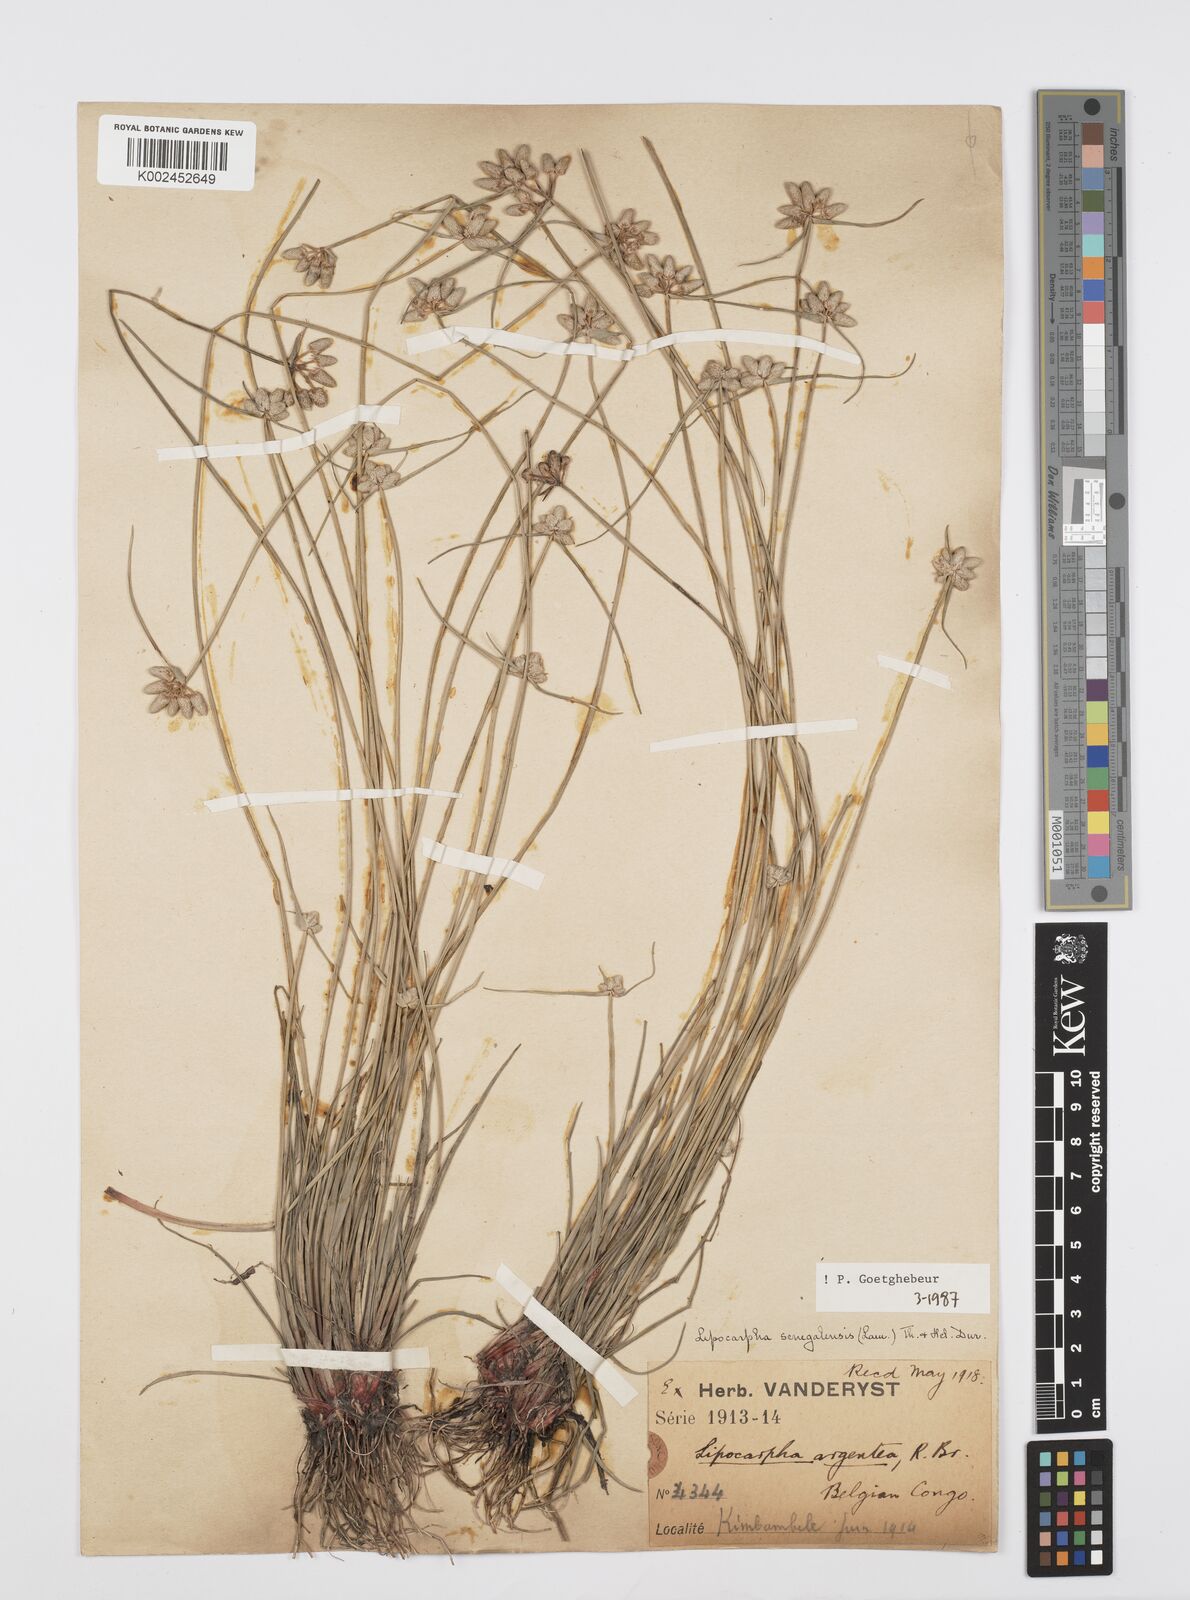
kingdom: Plantae
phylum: Tracheophyta
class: Liliopsida
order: Poales
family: Cyperaceae
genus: Cyperus
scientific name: Cyperus albescens
